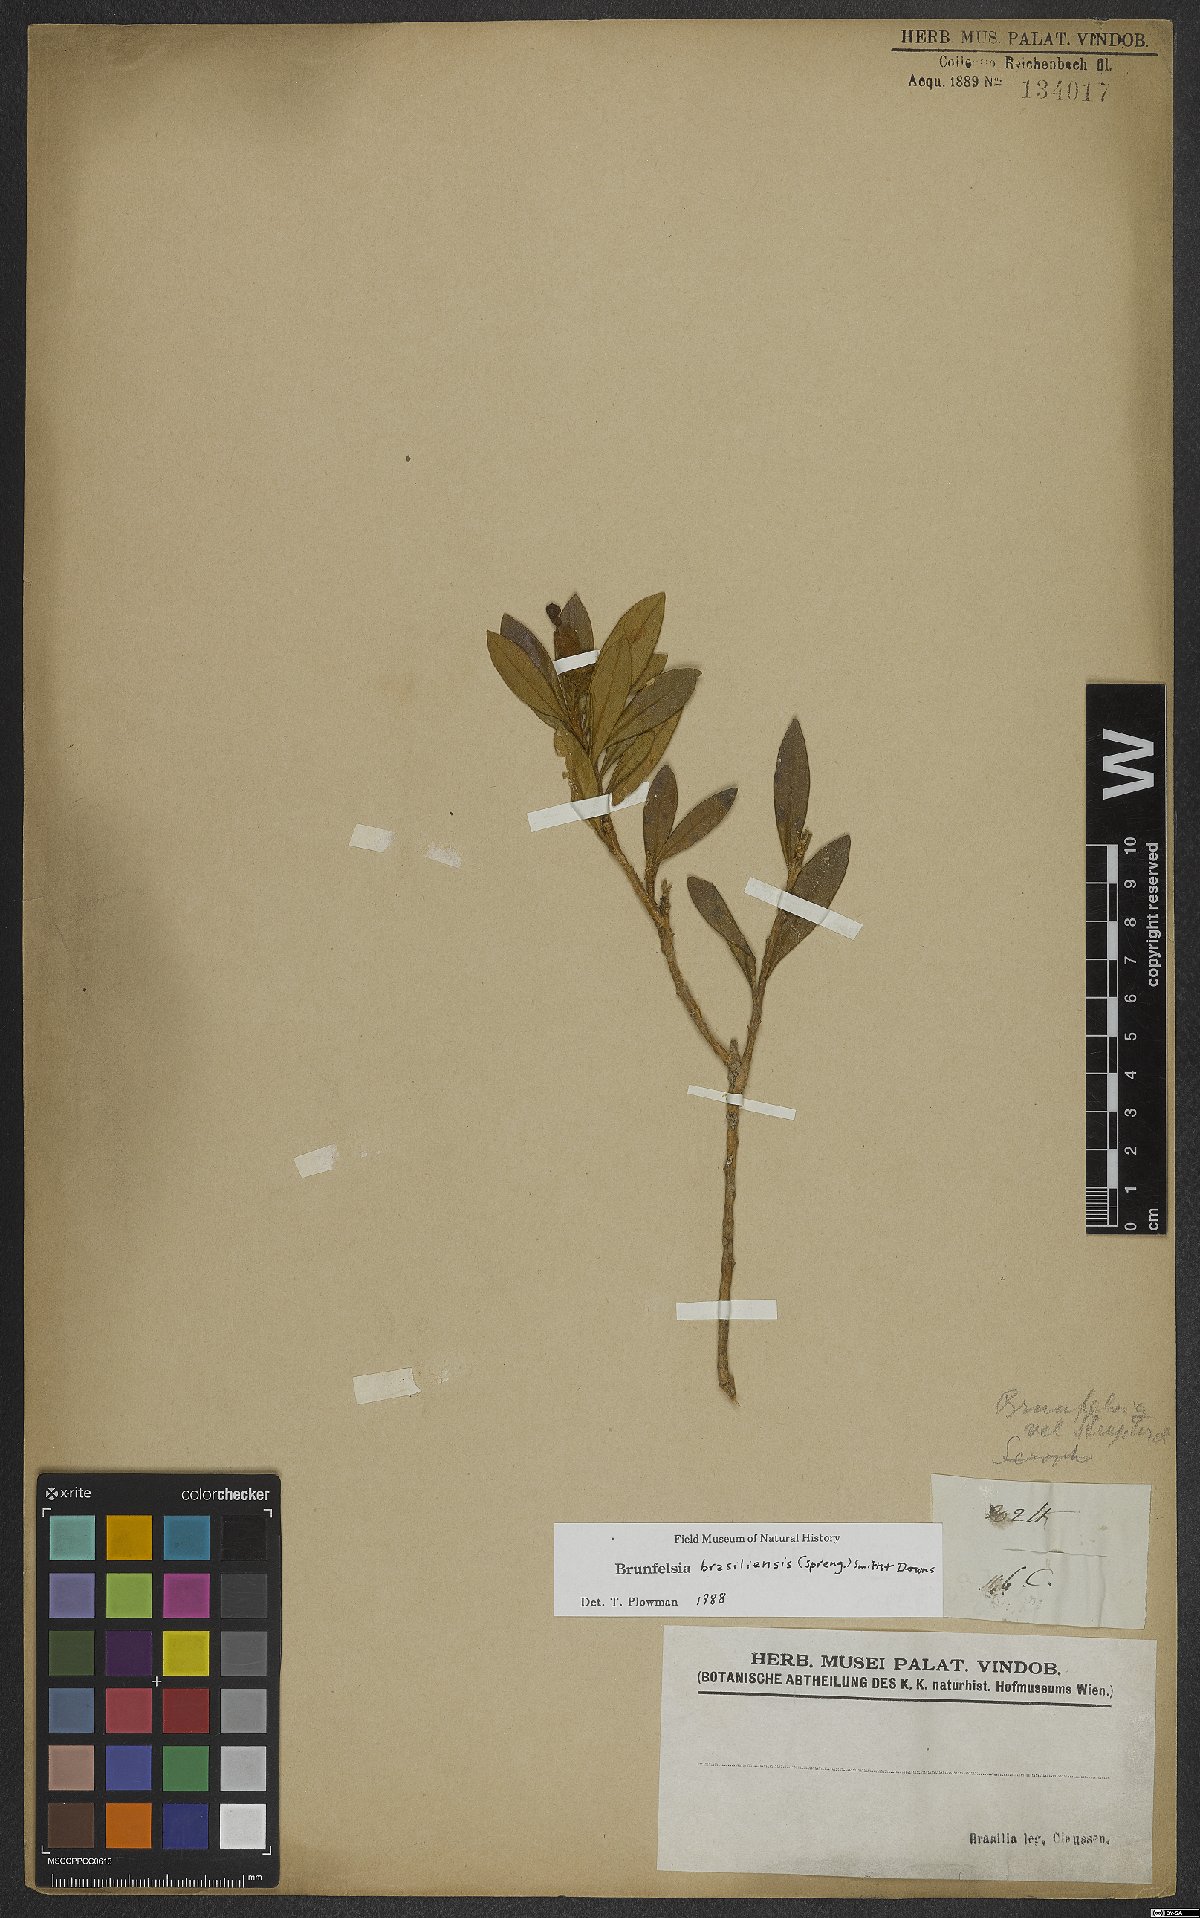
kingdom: Plantae
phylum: Tracheophyta
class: Magnoliopsida
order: Solanales
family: Solanaceae
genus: Brunfelsia
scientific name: Brunfelsia brasiliensis
